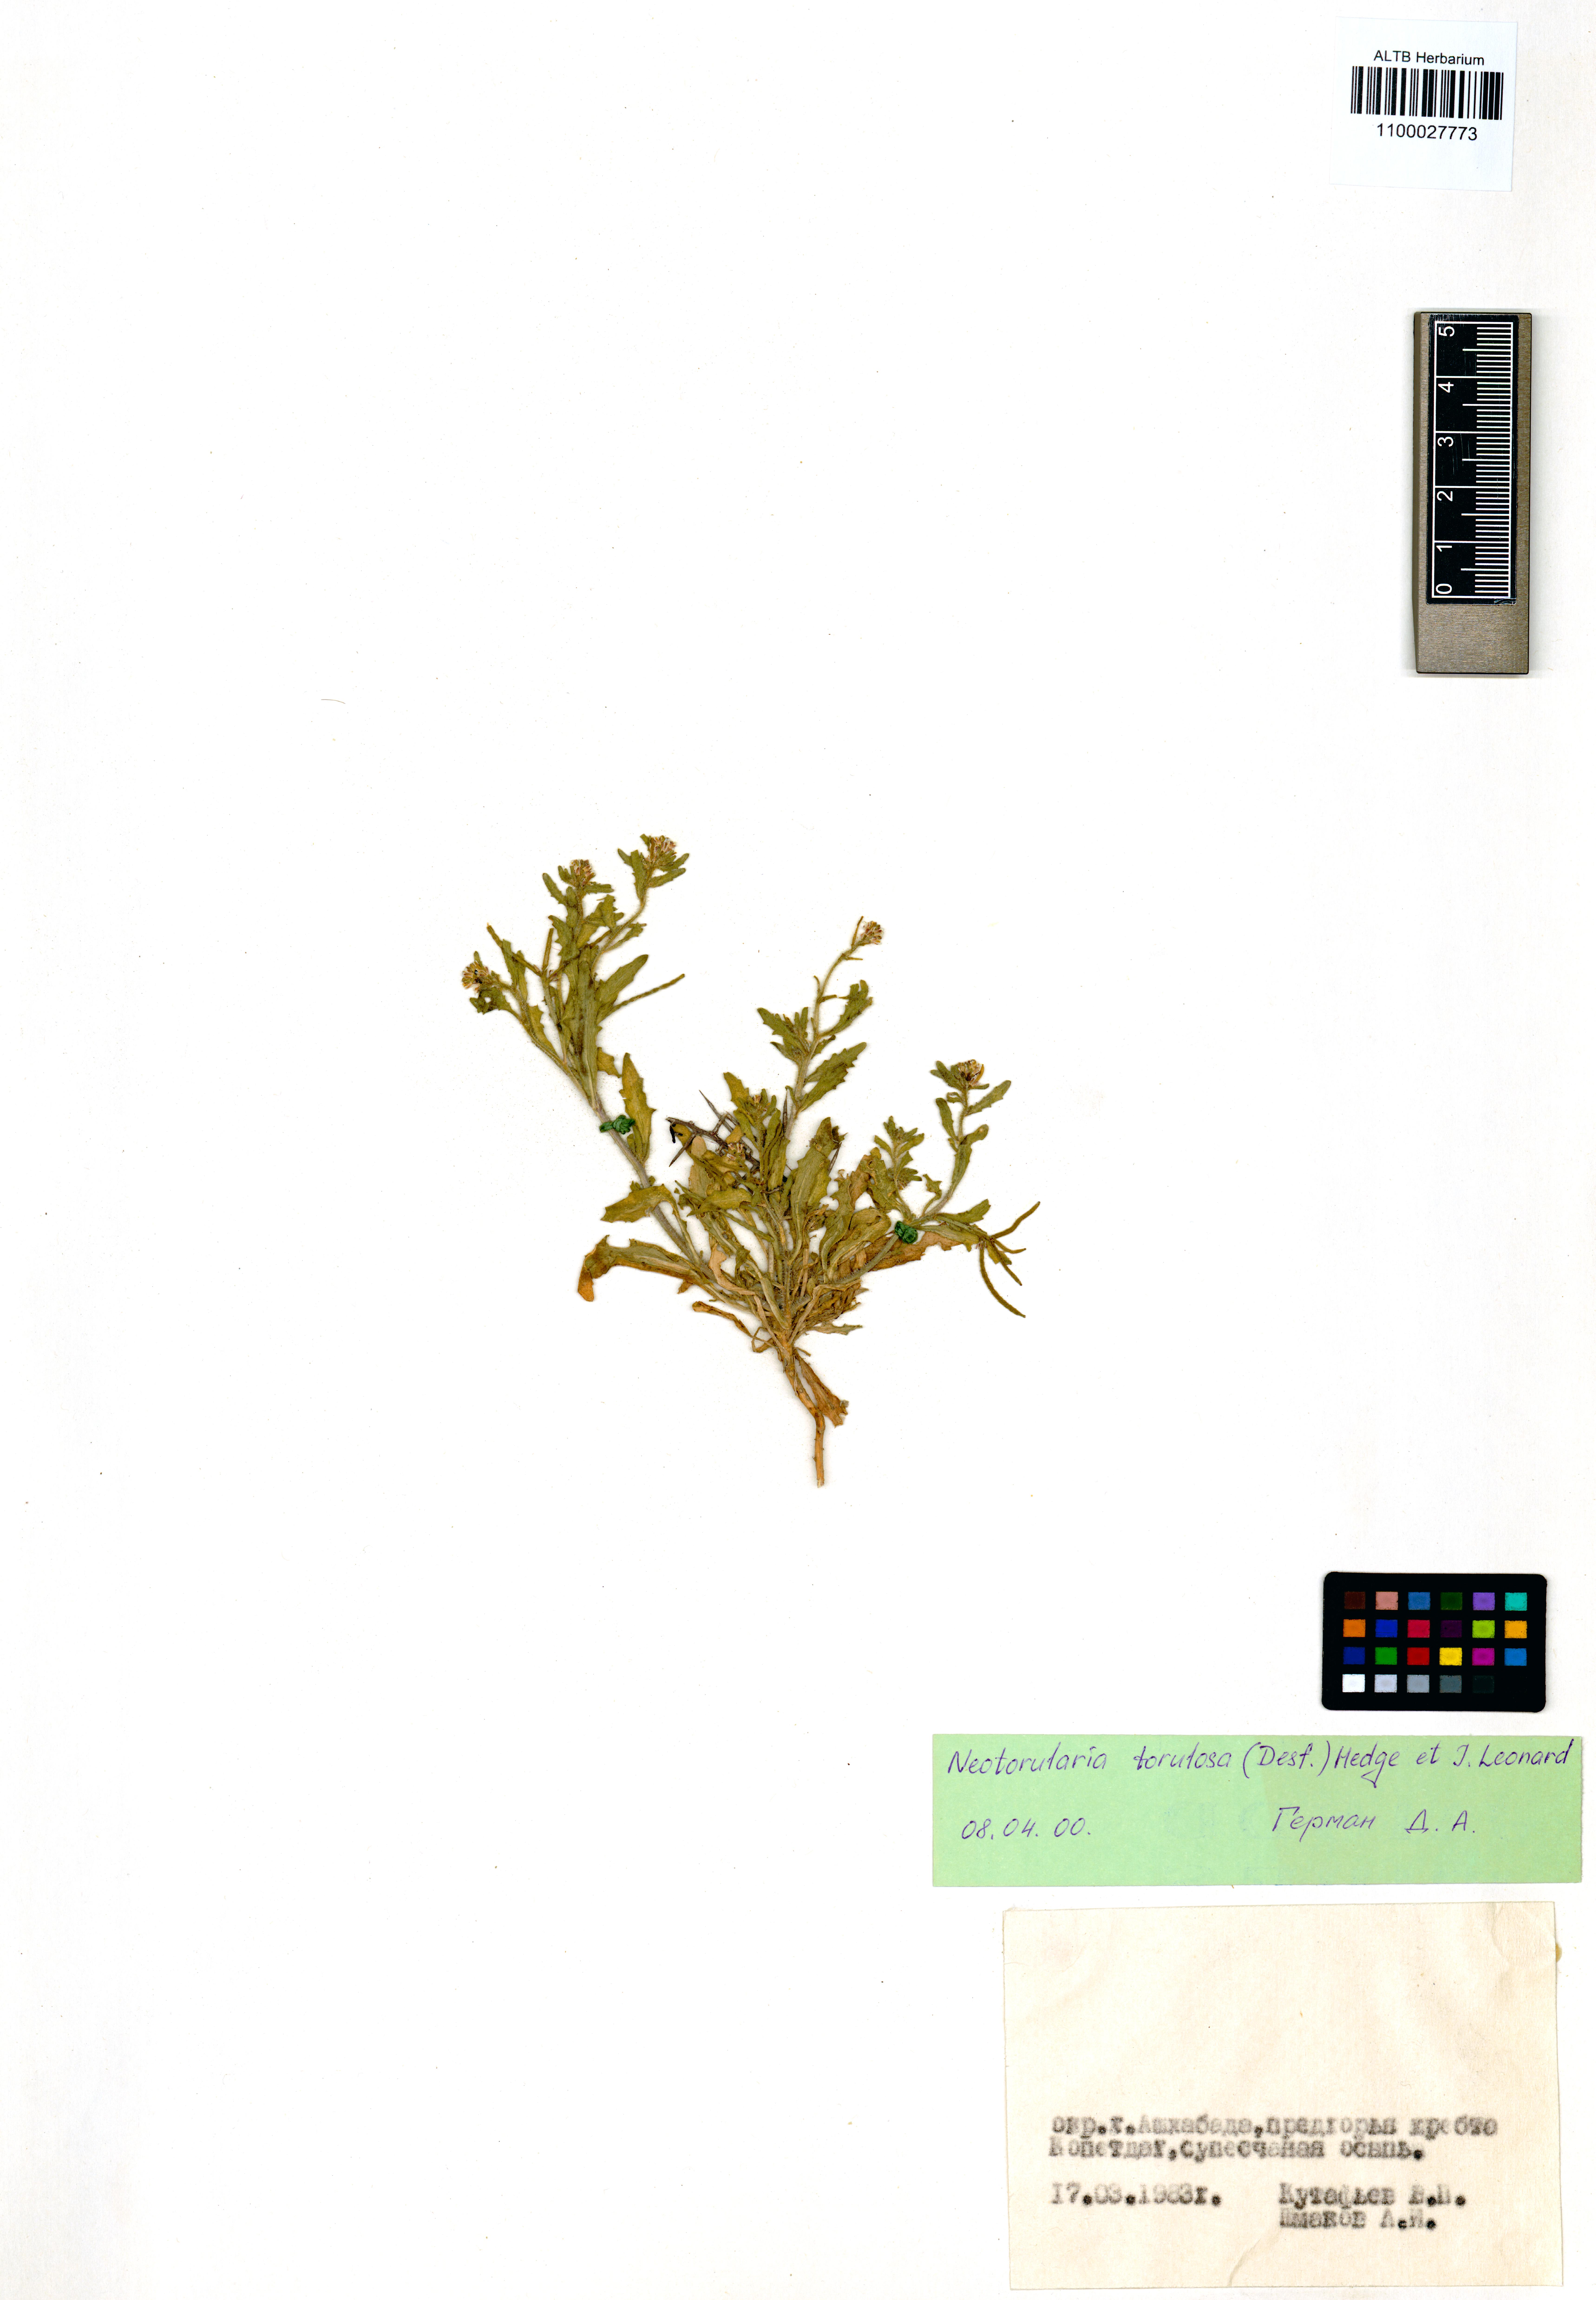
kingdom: Plantae
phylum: Tracheophyta
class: Magnoliopsida
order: Brassicales
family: Brassicaceae
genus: Neotorularia
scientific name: Neotorularia torulosa
